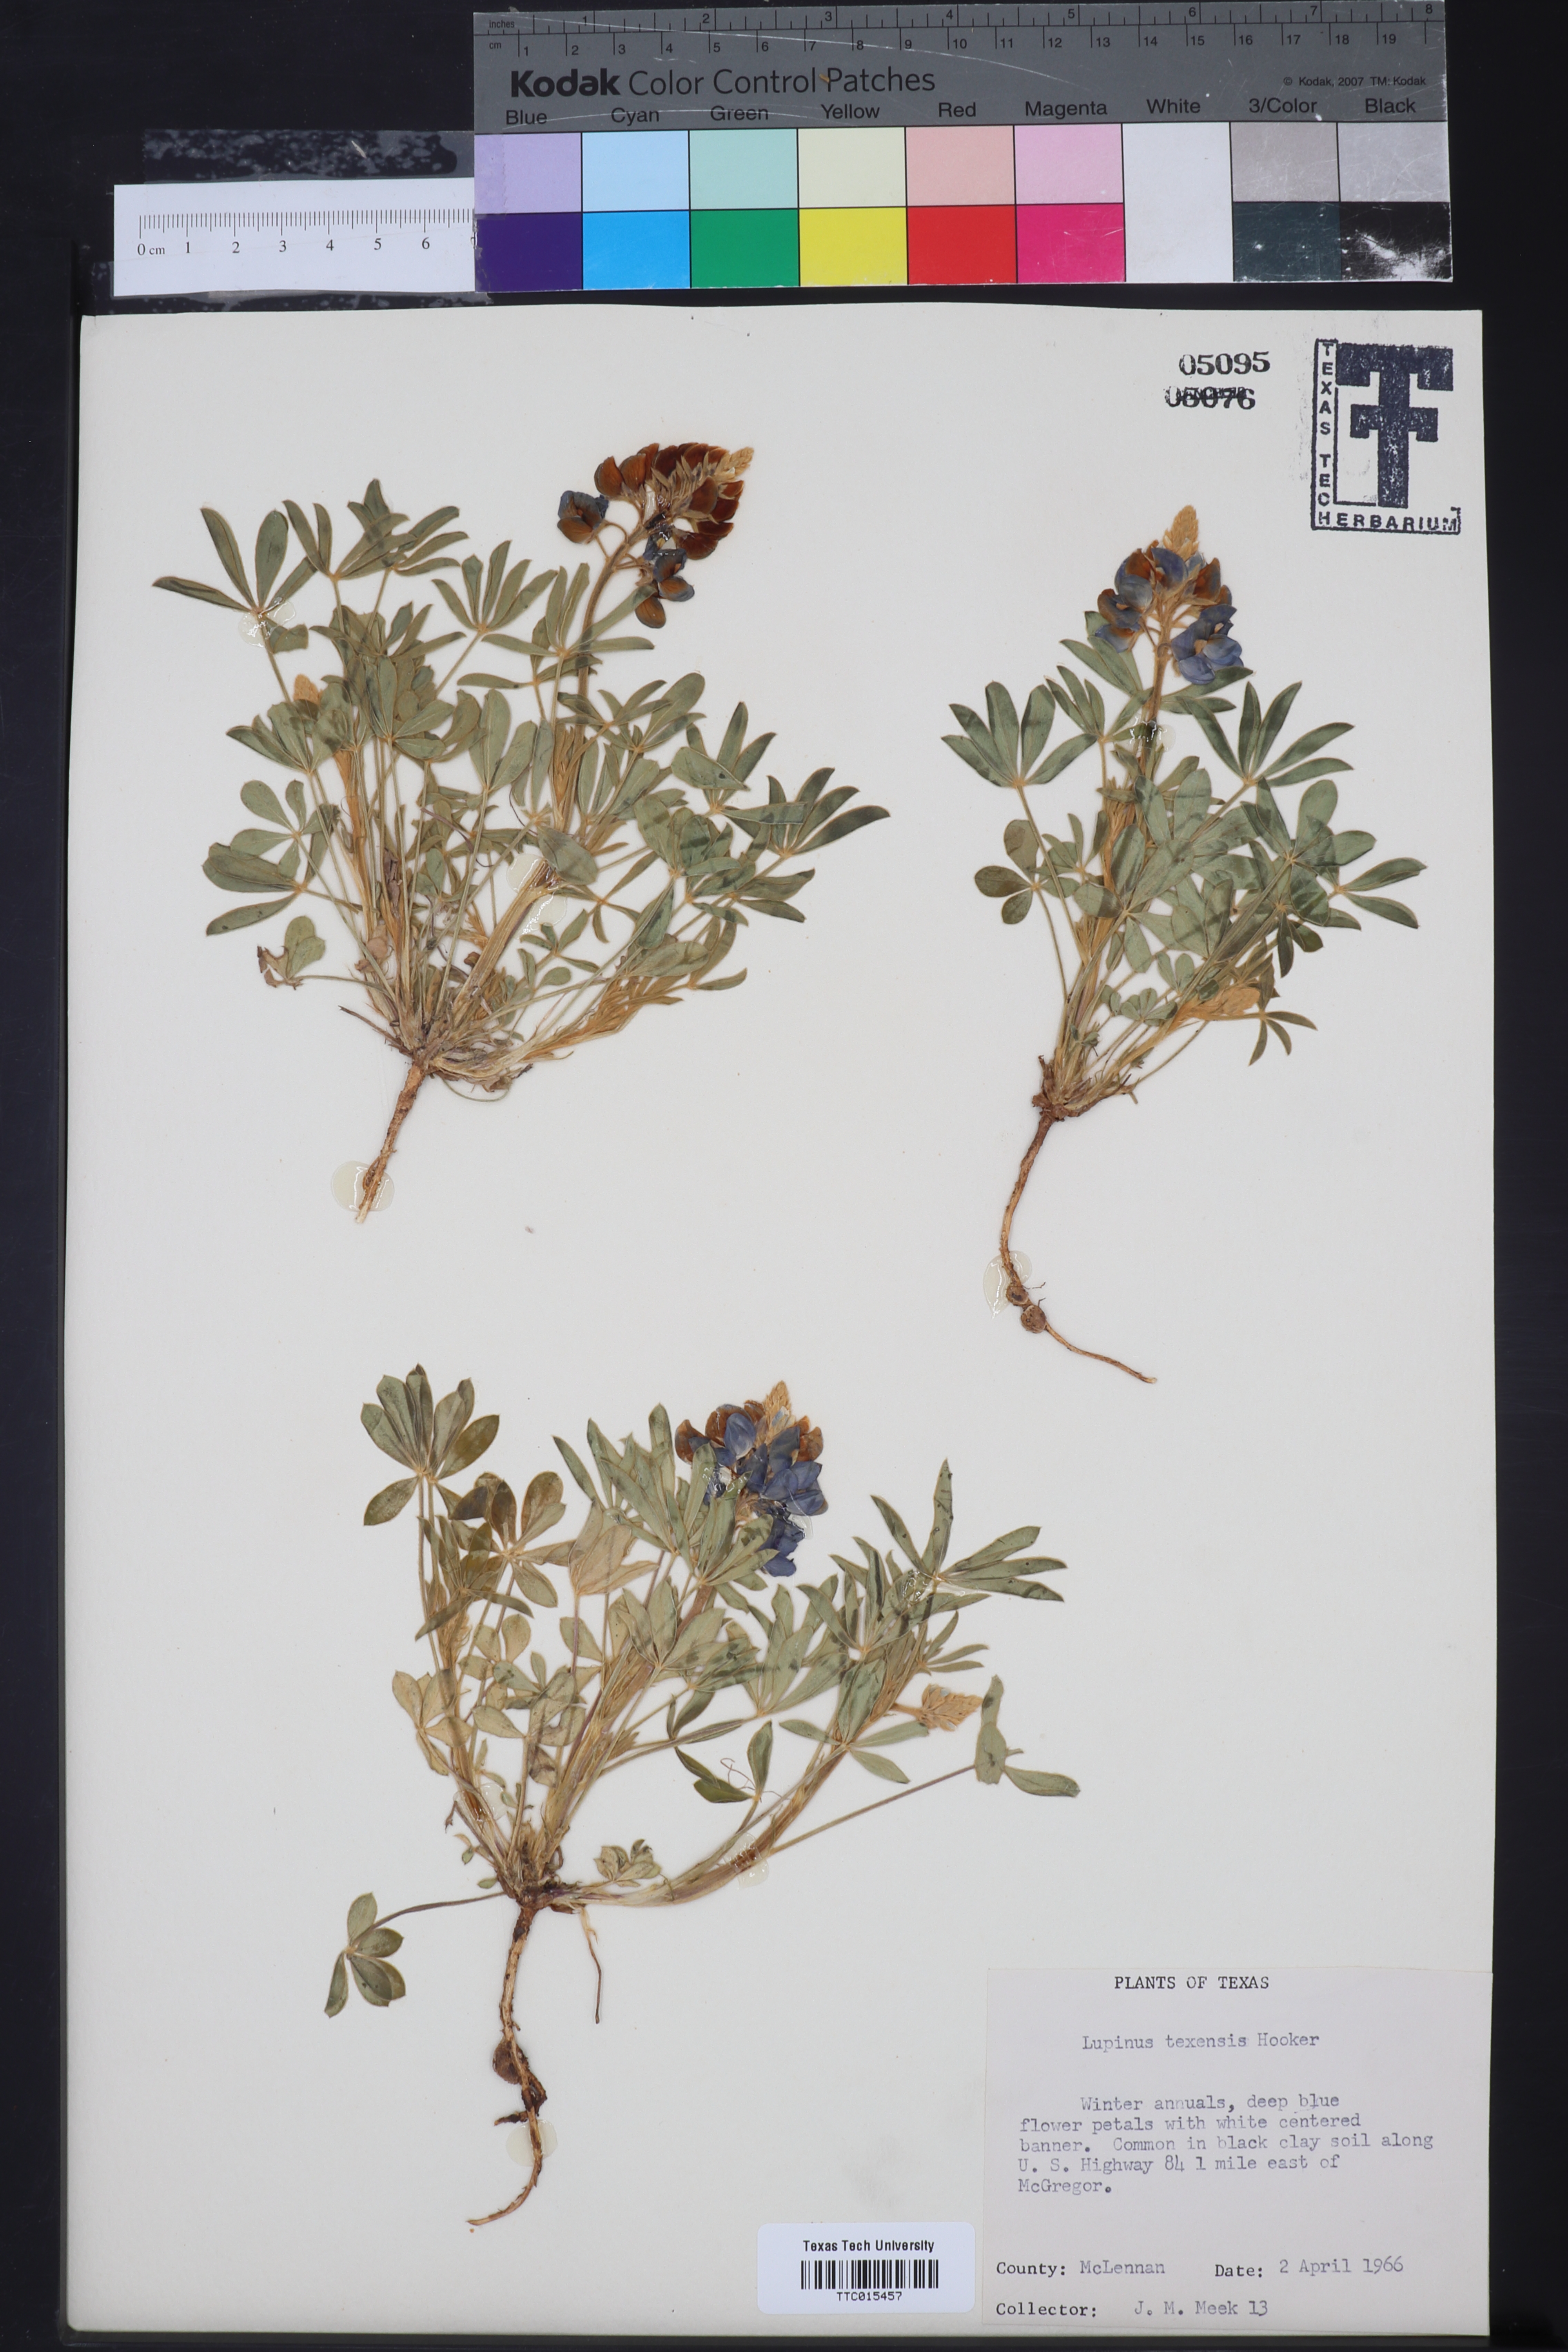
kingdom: Plantae
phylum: Tracheophyta
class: Magnoliopsida
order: Fabales
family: Fabaceae
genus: Lupinus
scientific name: Lupinus texensis
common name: Texas bluebonnet
